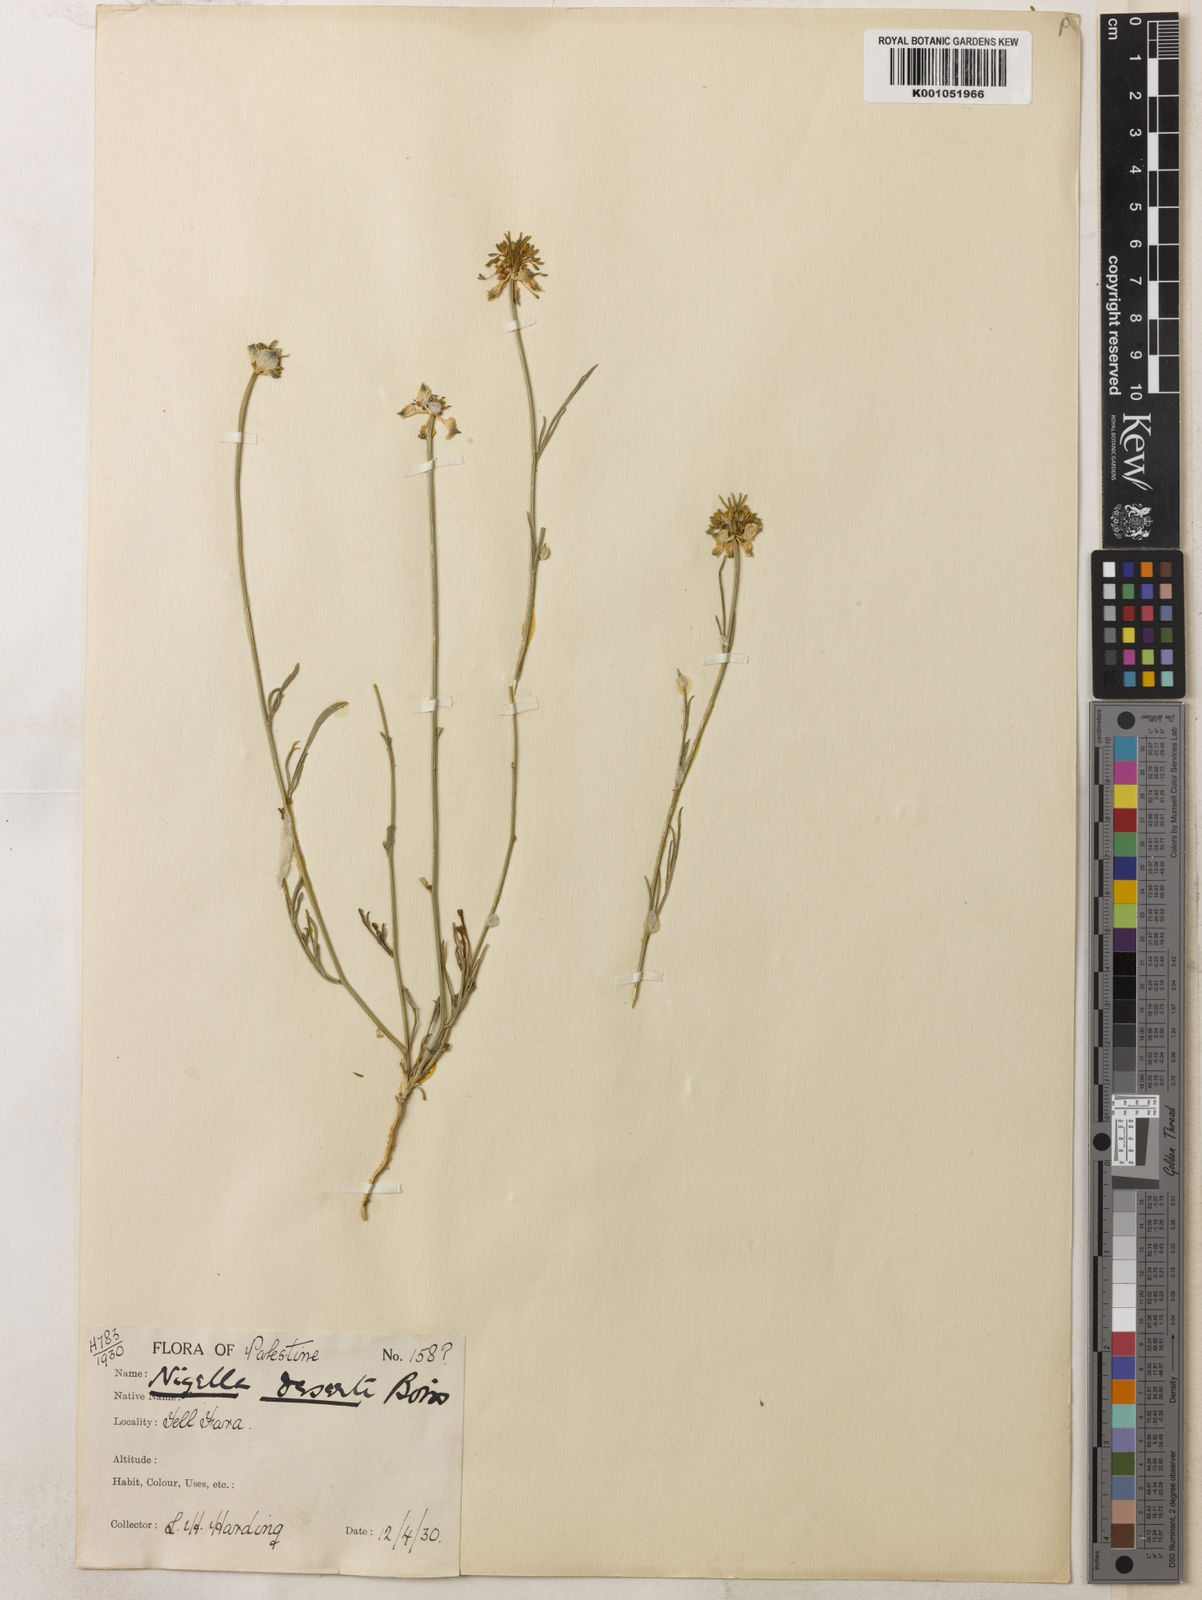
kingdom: Plantae
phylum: Tracheophyta
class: Magnoliopsida
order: Ranunculales
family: Ranunculaceae
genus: Nigella
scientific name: Nigella arvensis
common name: Wild fennel-flower
